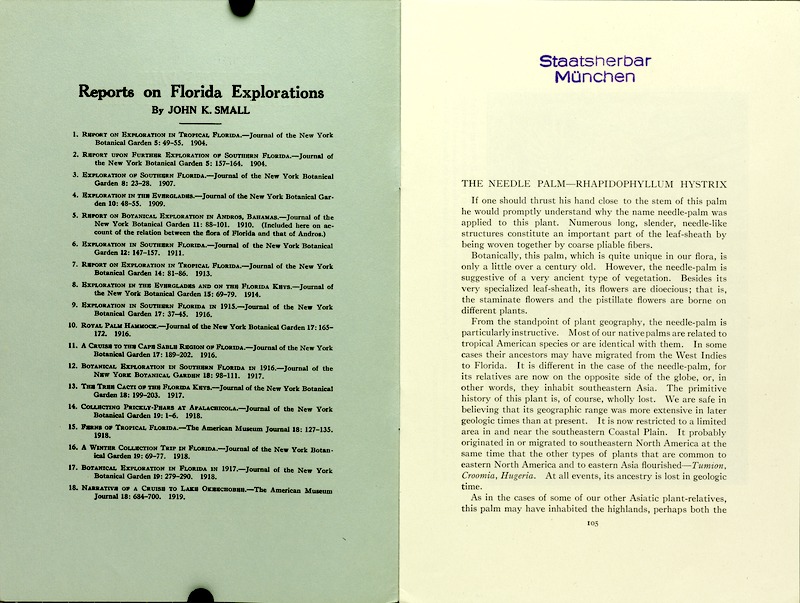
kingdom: Plantae
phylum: Tracheophyta
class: Liliopsida
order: Arecales
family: Arecaceae
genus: Rhapidophyllum
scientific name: Rhapidophyllum hystrix
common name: Porcupine palm
